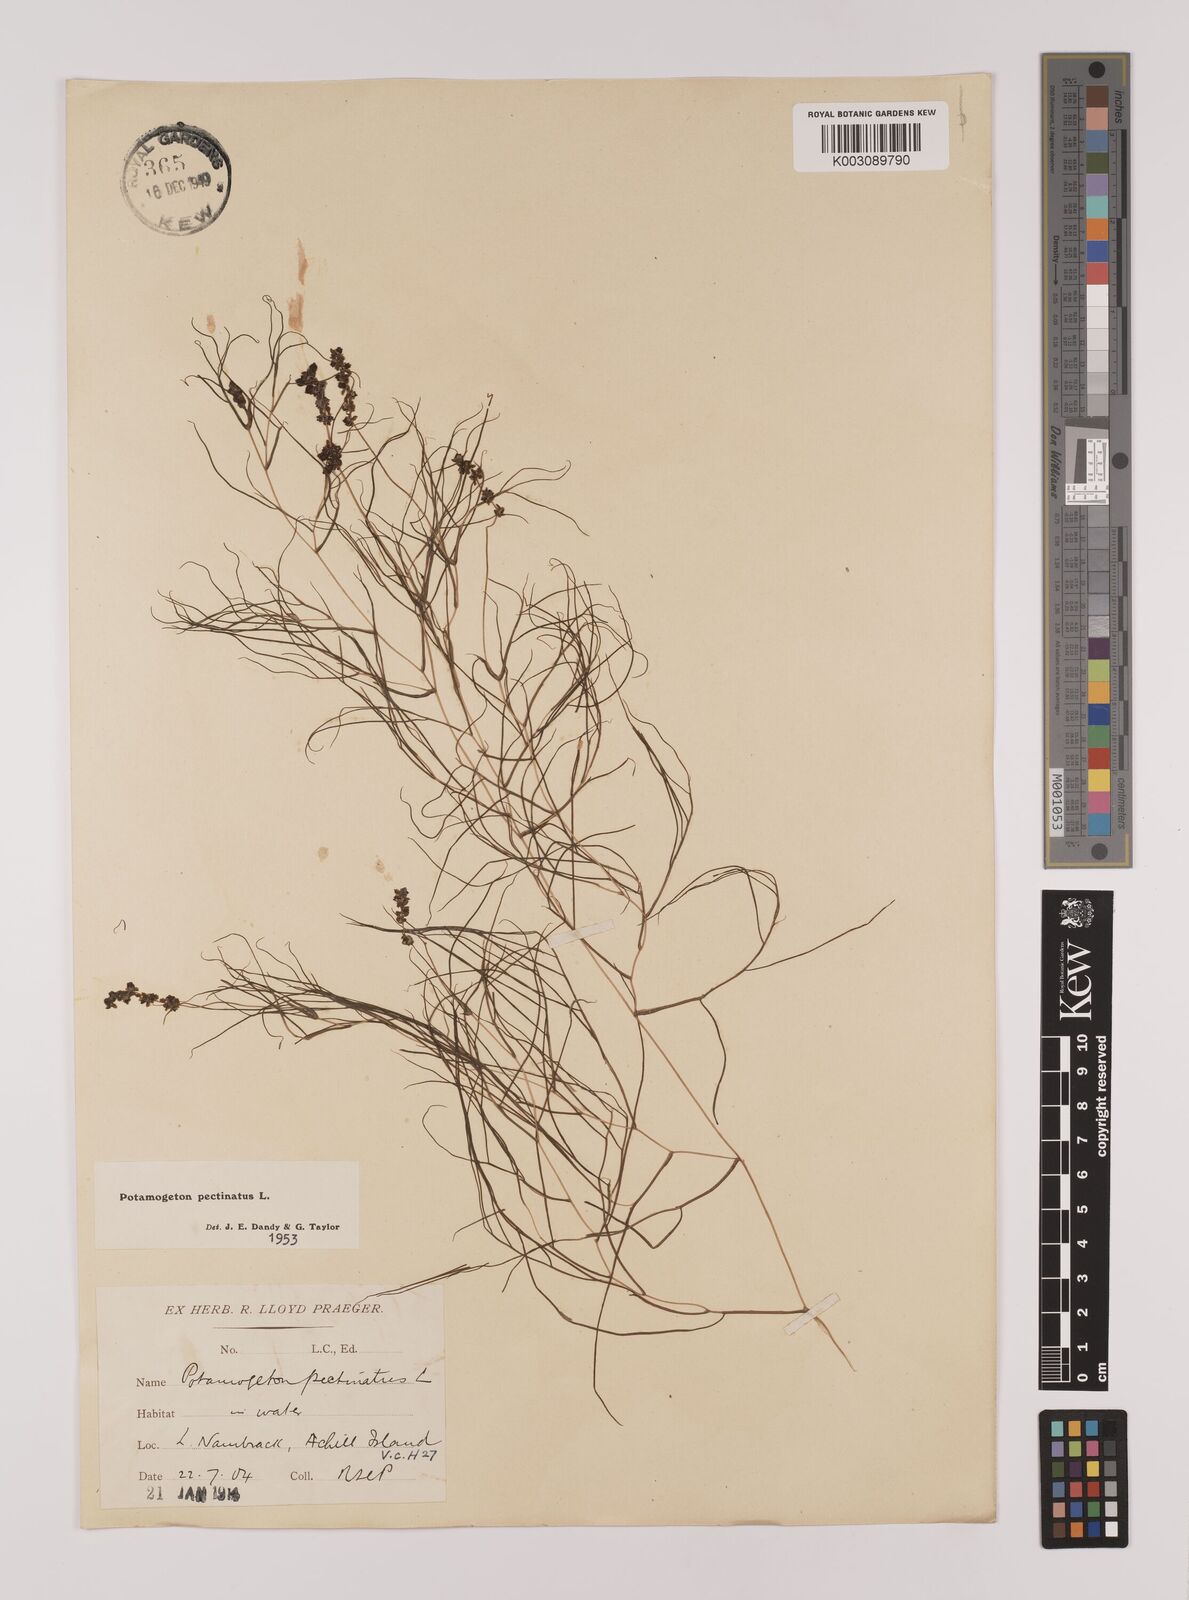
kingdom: Plantae
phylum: Tracheophyta
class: Liliopsida
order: Alismatales
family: Potamogetonaceae
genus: Stuckenia
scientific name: Stuckenia pectinata
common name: Sago pondweed
